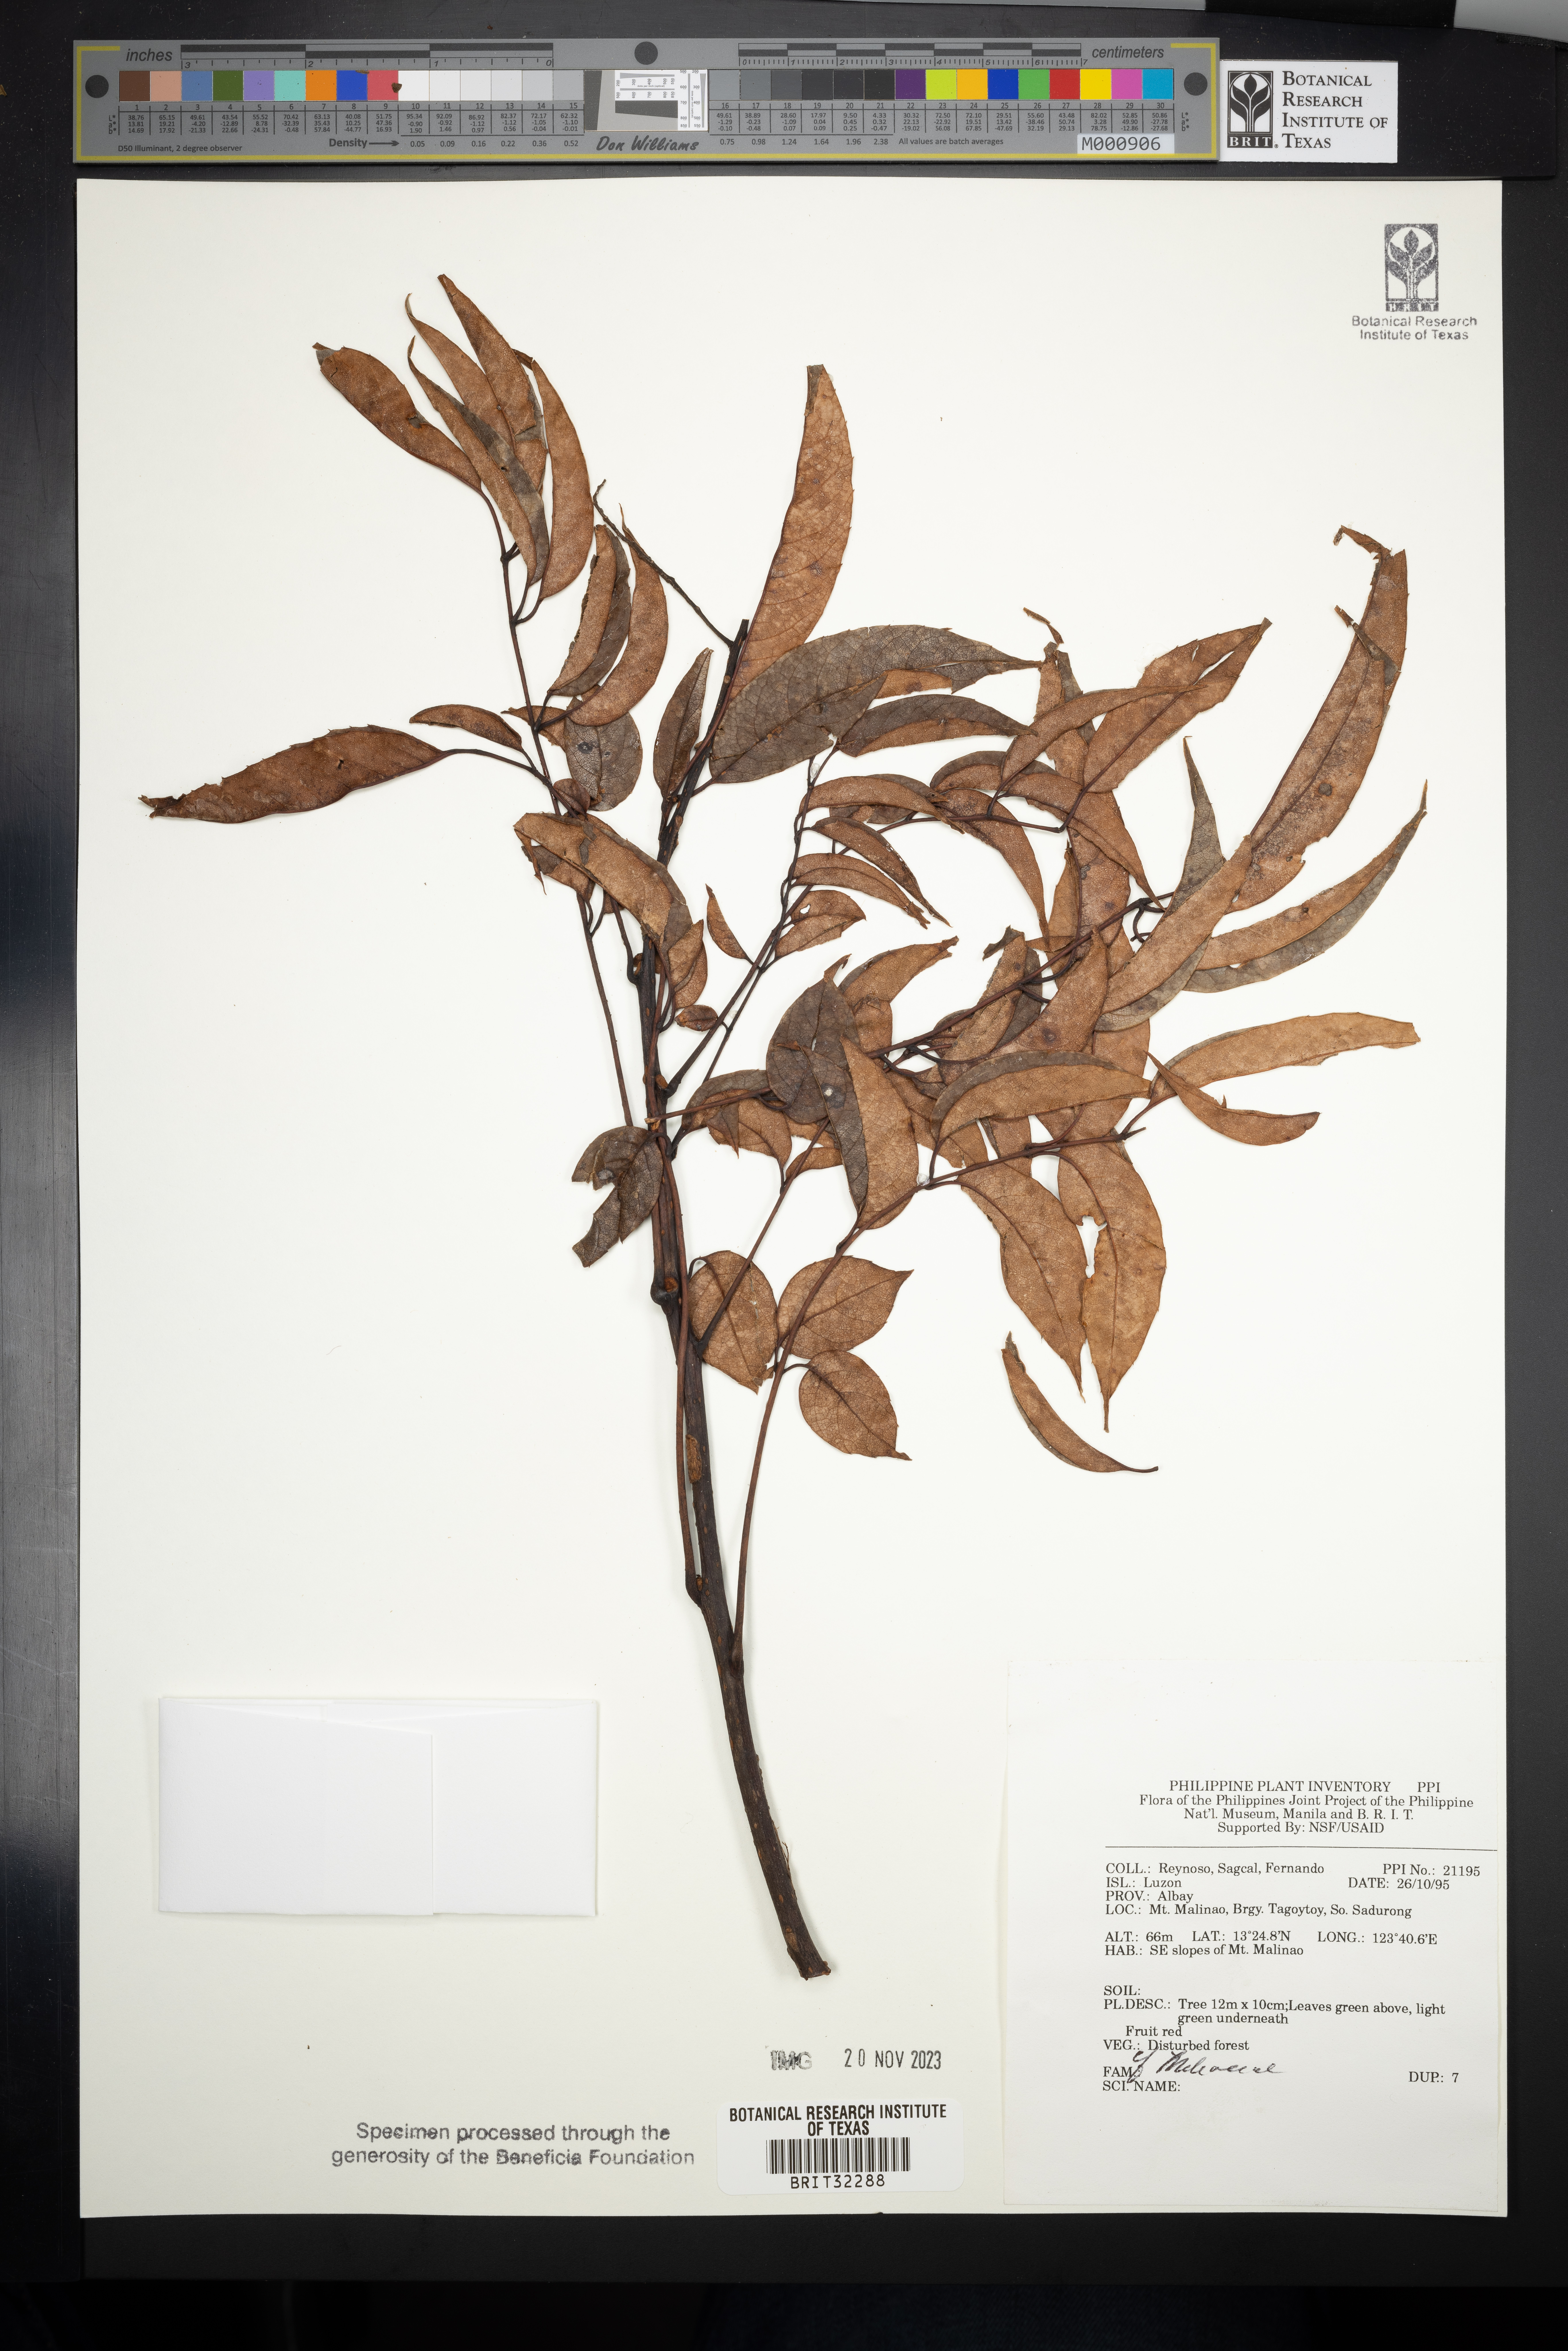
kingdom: Plantae
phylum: Tracheophyta
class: Magnoliopsida
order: Sapindales
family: Meliaceae
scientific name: Meliaceae
